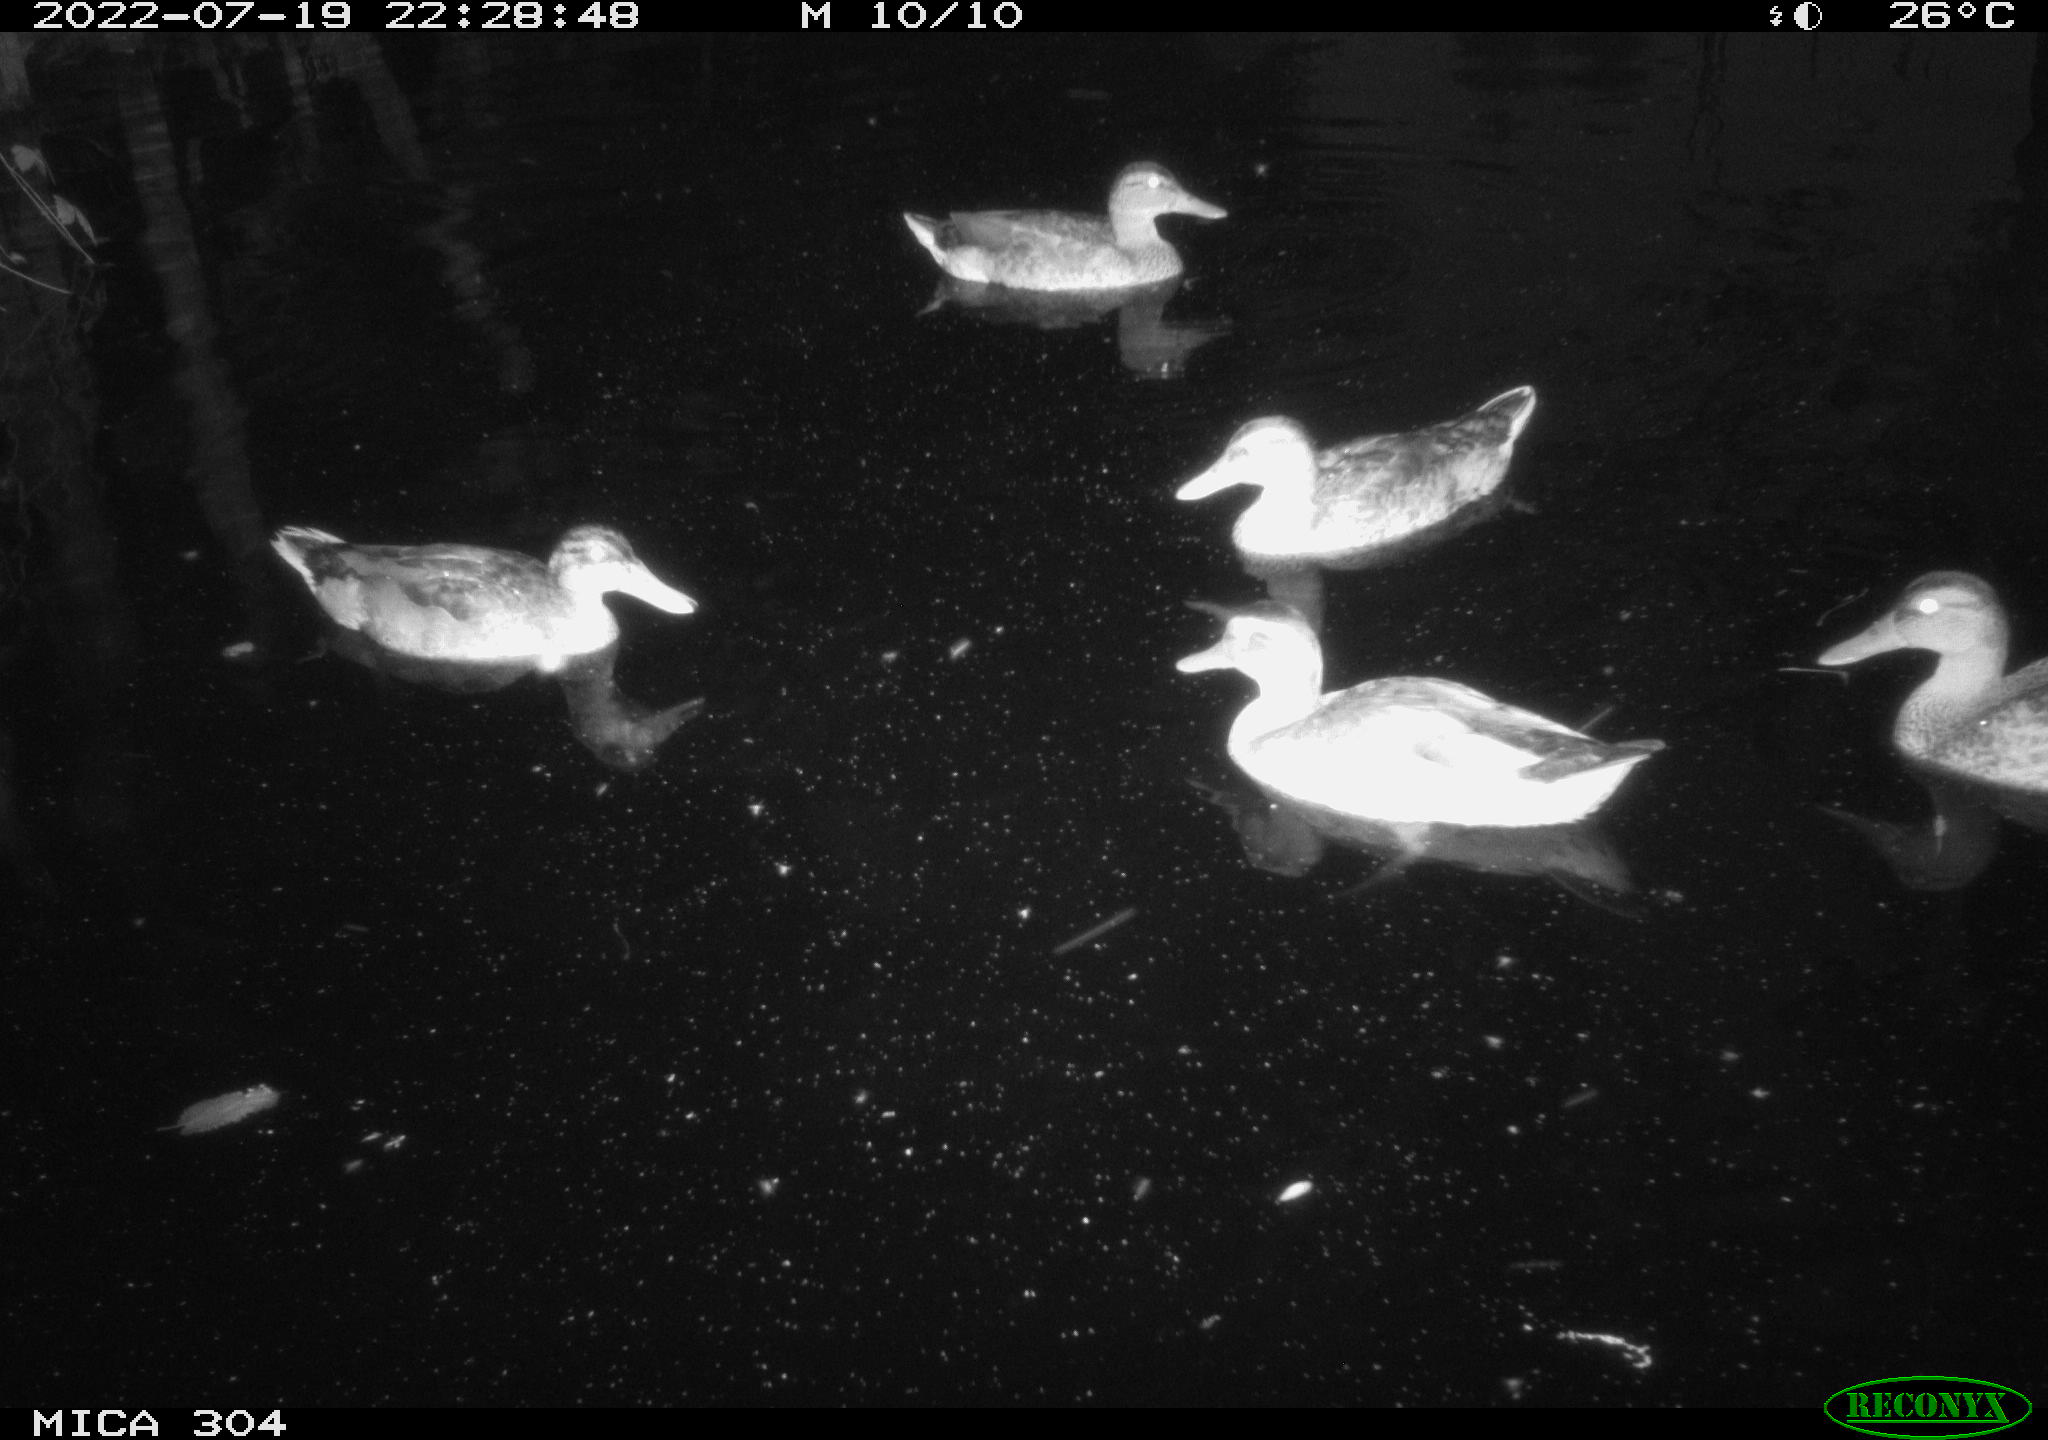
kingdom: Animalia
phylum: Chordata
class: Aves
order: Anseriformes
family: Anatidae
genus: Anas
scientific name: Anas platyrhynchos
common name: Mallard
